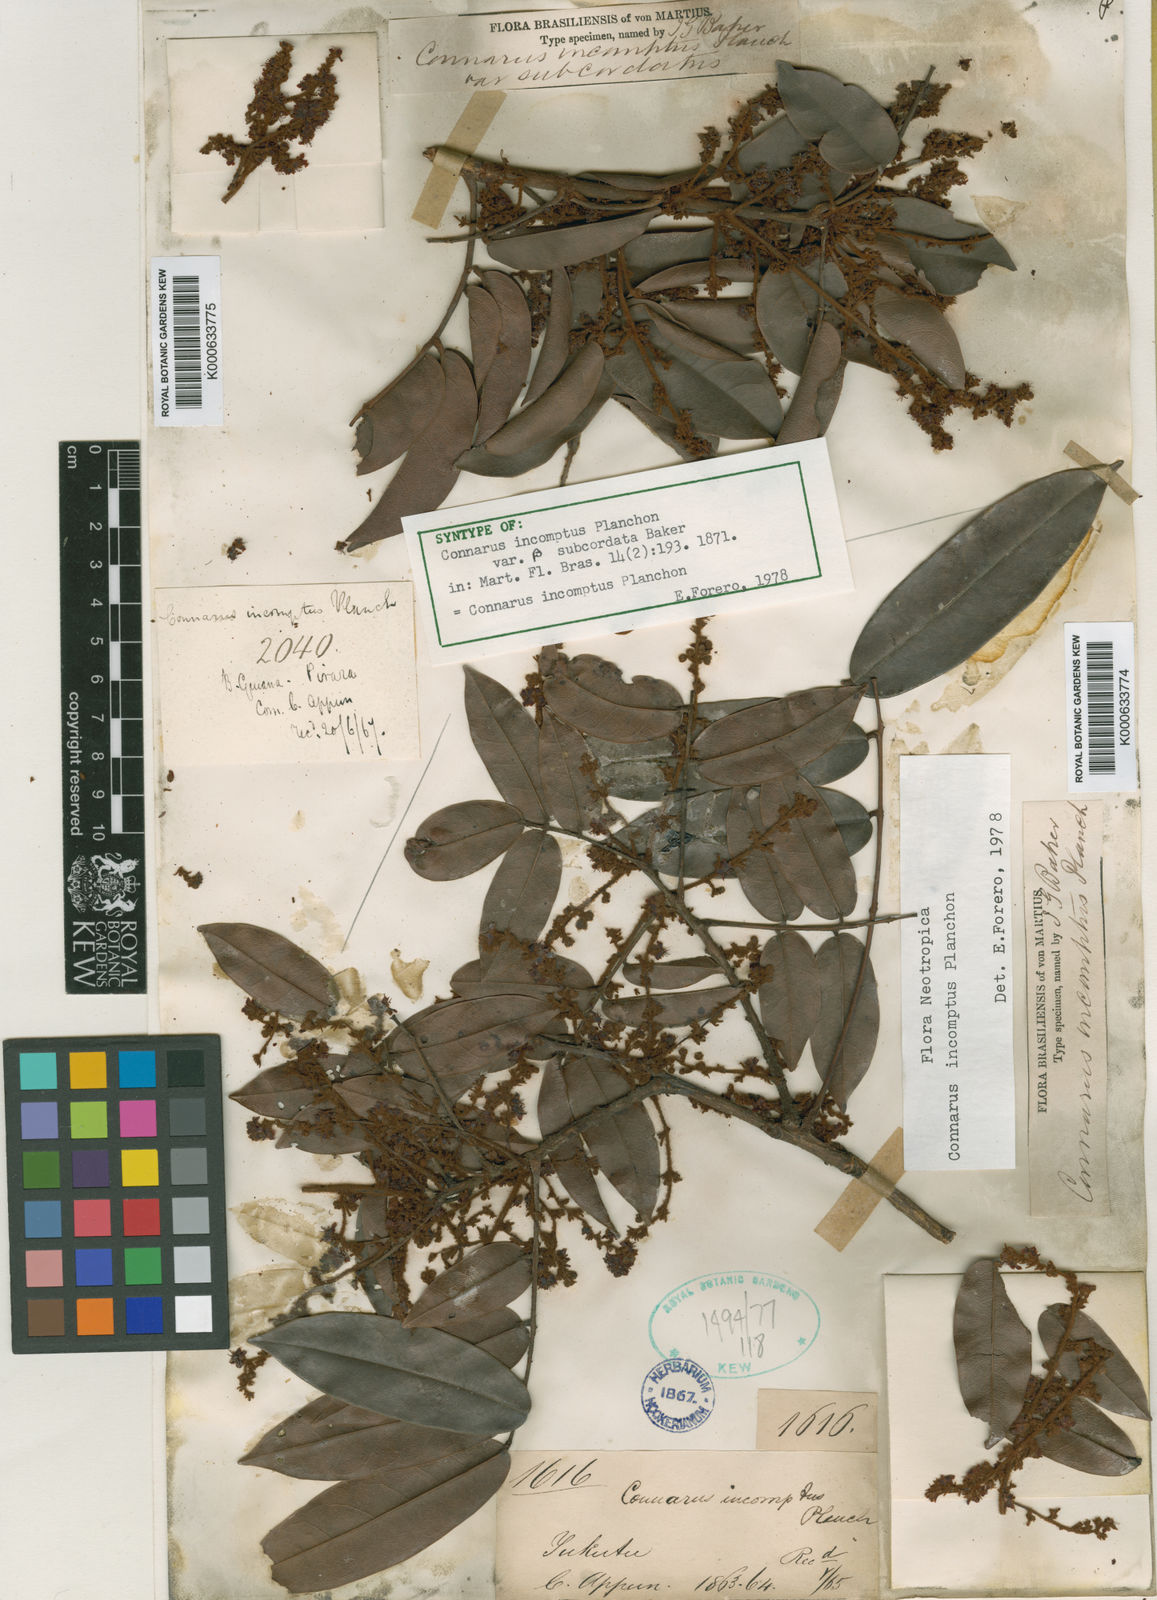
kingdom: Plantae
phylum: Tracheophyta
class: Magnoliopsida
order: Oxalidales
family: Connaraceae
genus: Connarus
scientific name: Connarus incomptus
